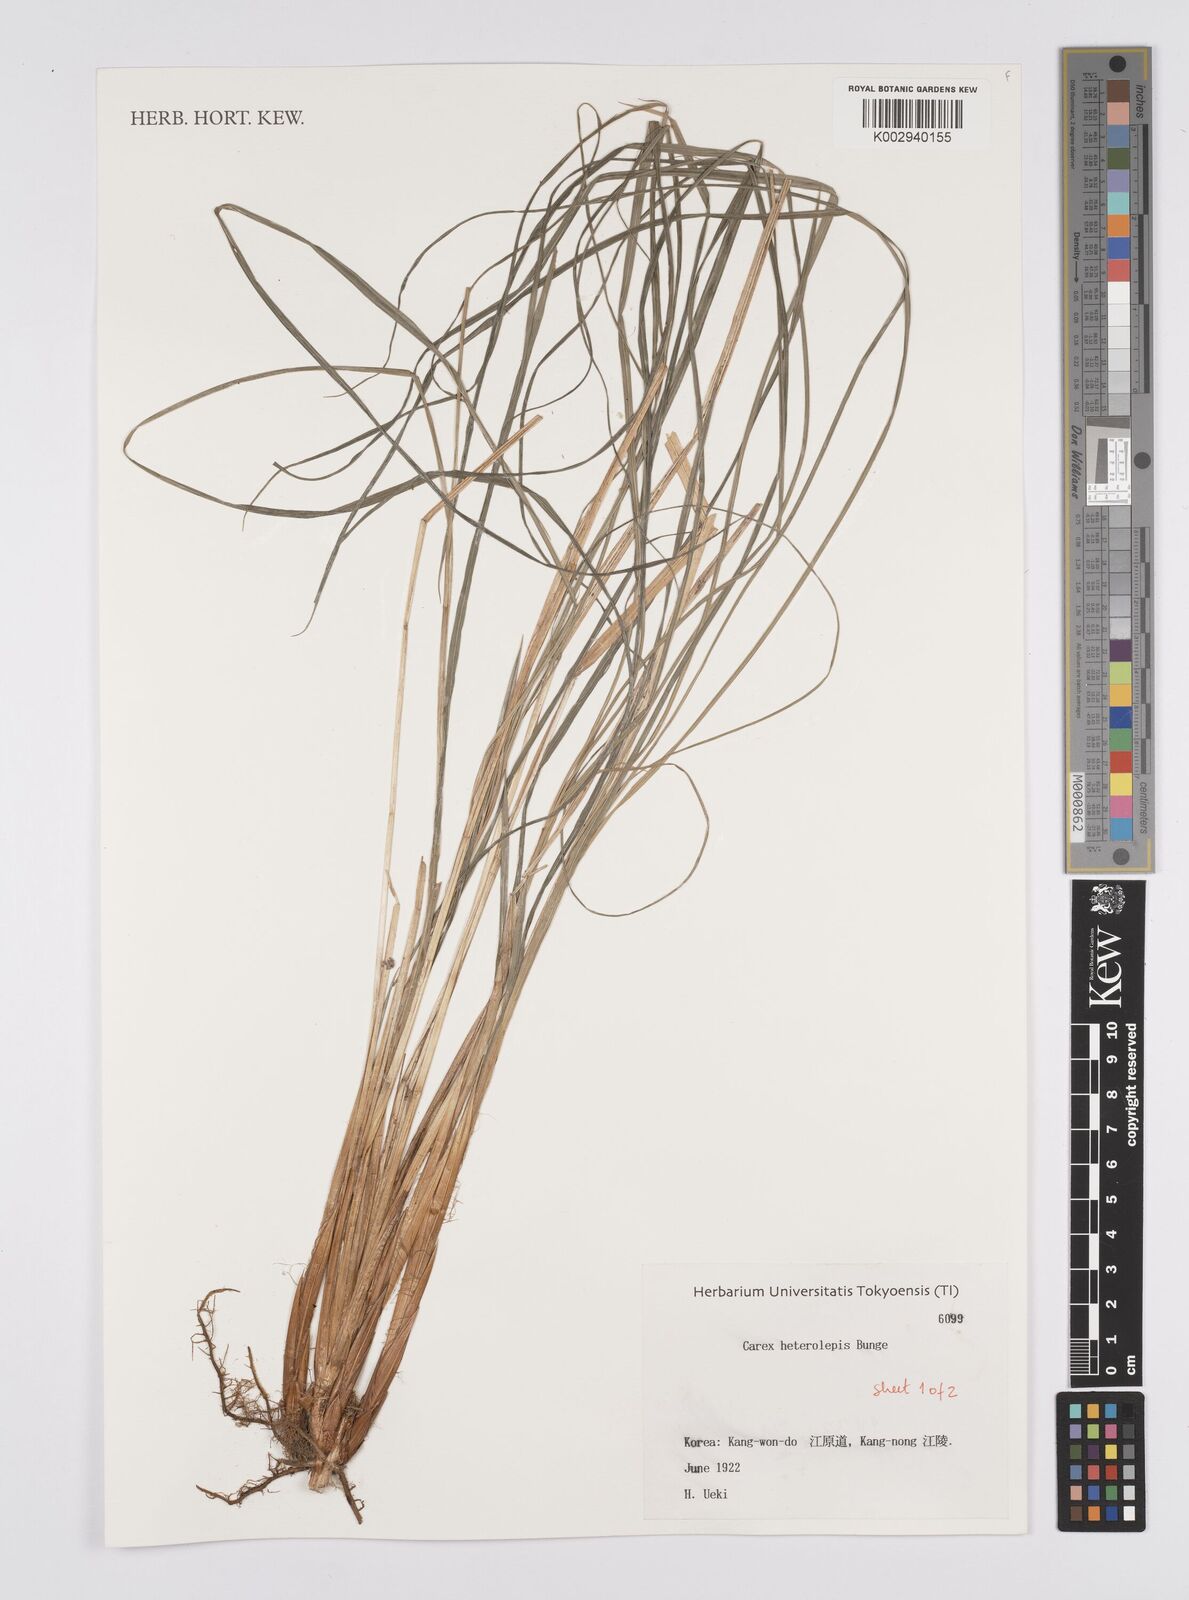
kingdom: Plantae
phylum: Tracheophyta
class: Liliopsida
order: Poales
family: Cyperaceae
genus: Carex
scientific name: Carex heterolepis
